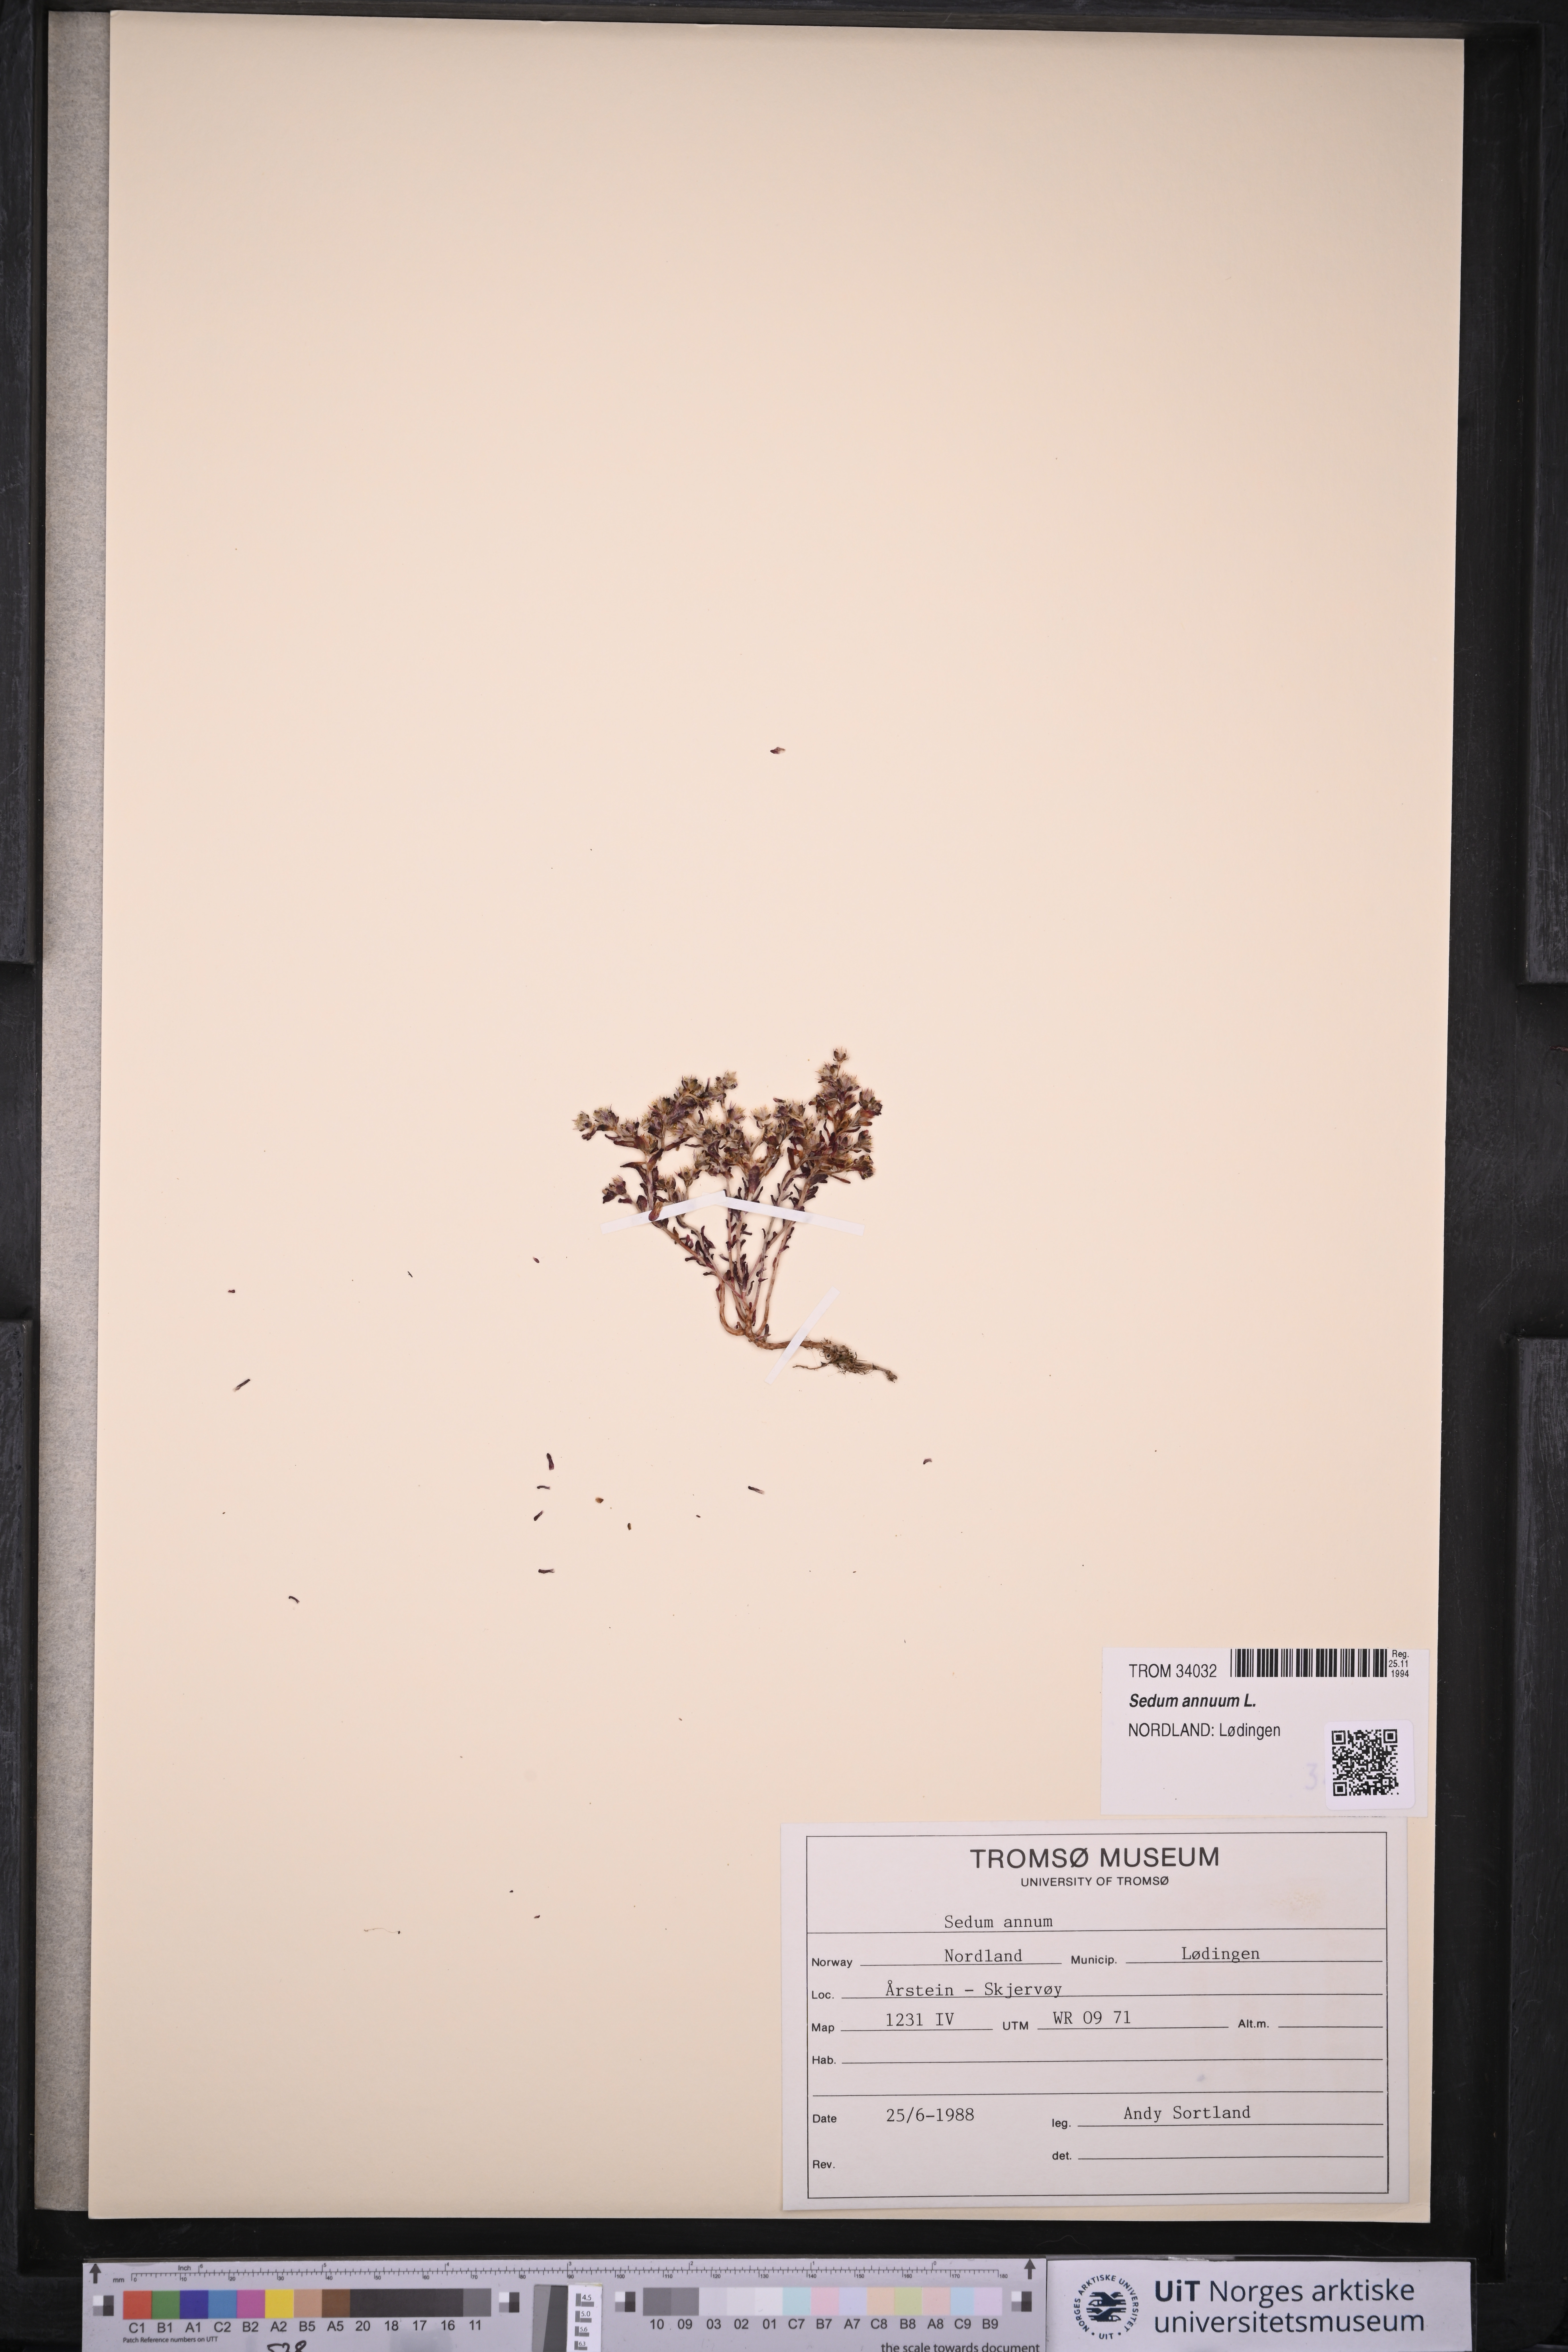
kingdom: Plantae
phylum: Tracheophyta
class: Magnoliopsida
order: Saxifragales
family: Crassulaceae
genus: Sedum
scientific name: Sedum annuum
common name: Annual stonecrop
